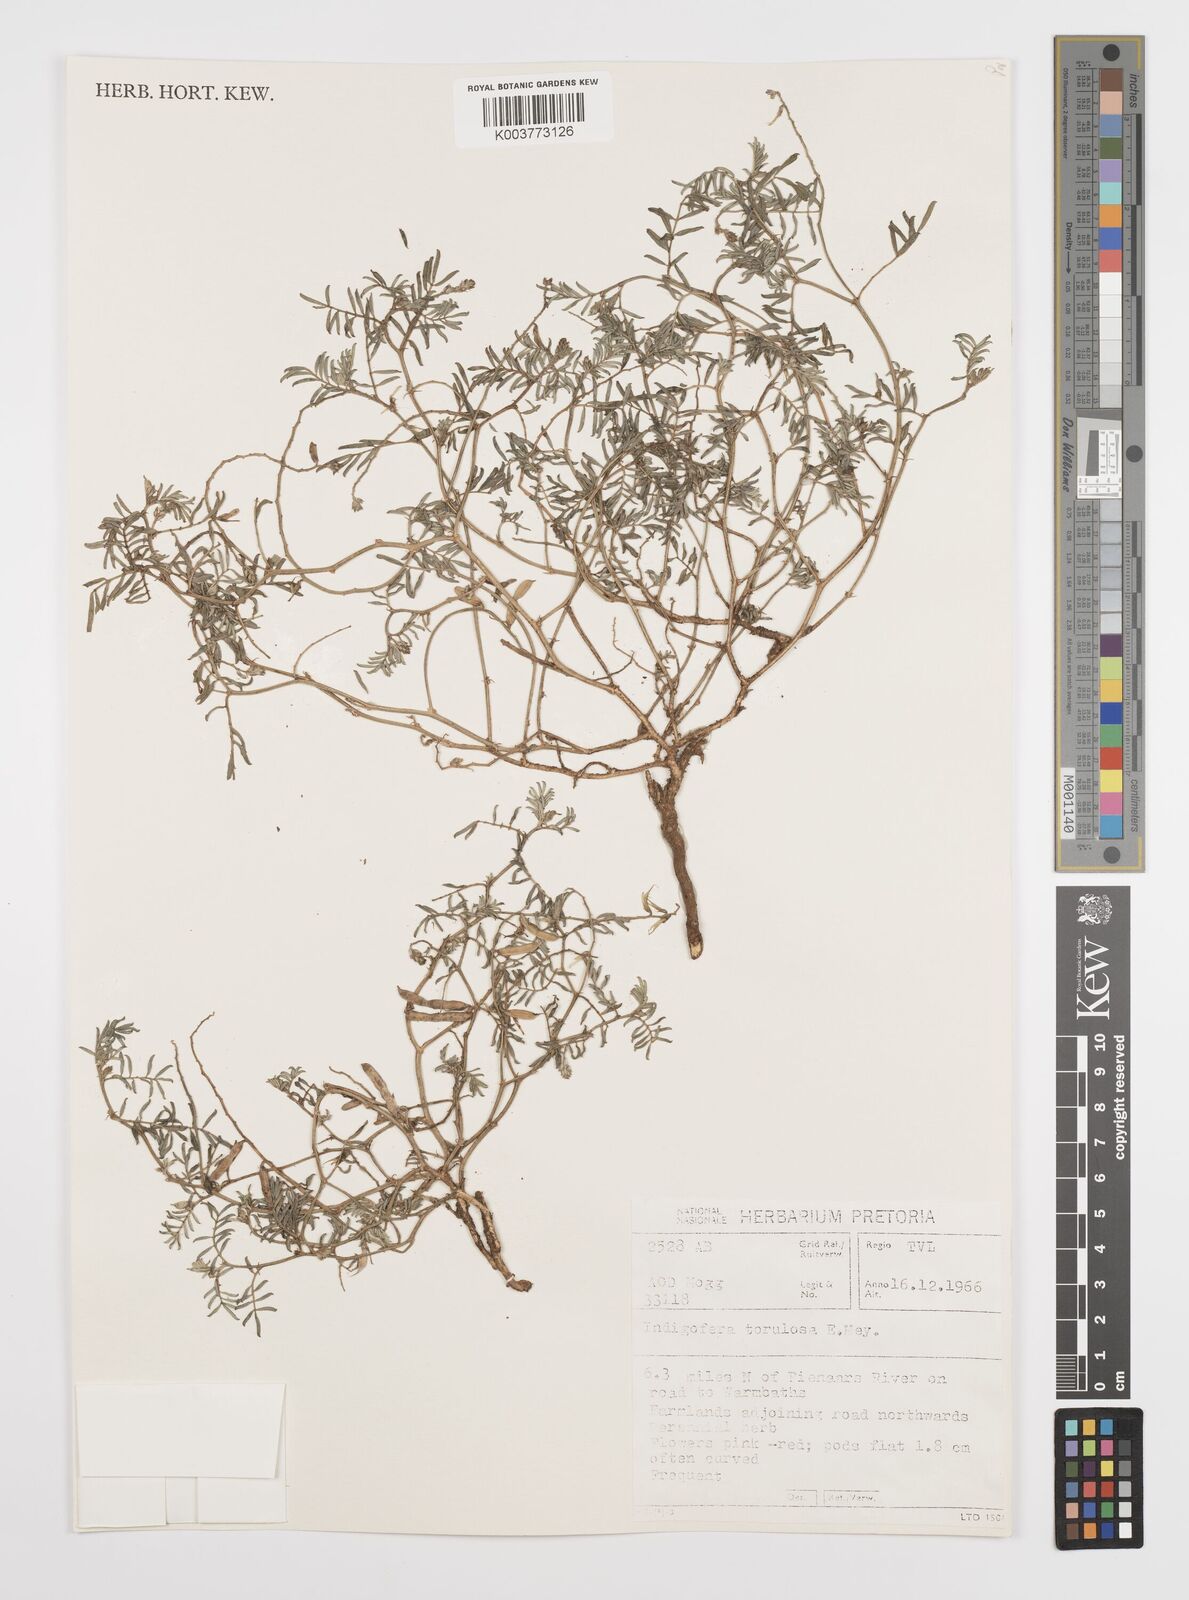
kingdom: Plantae
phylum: Tracheophyta
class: Magnoliopsida
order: Fabales
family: Fabaceae
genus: Indigofera
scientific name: Indigofera
